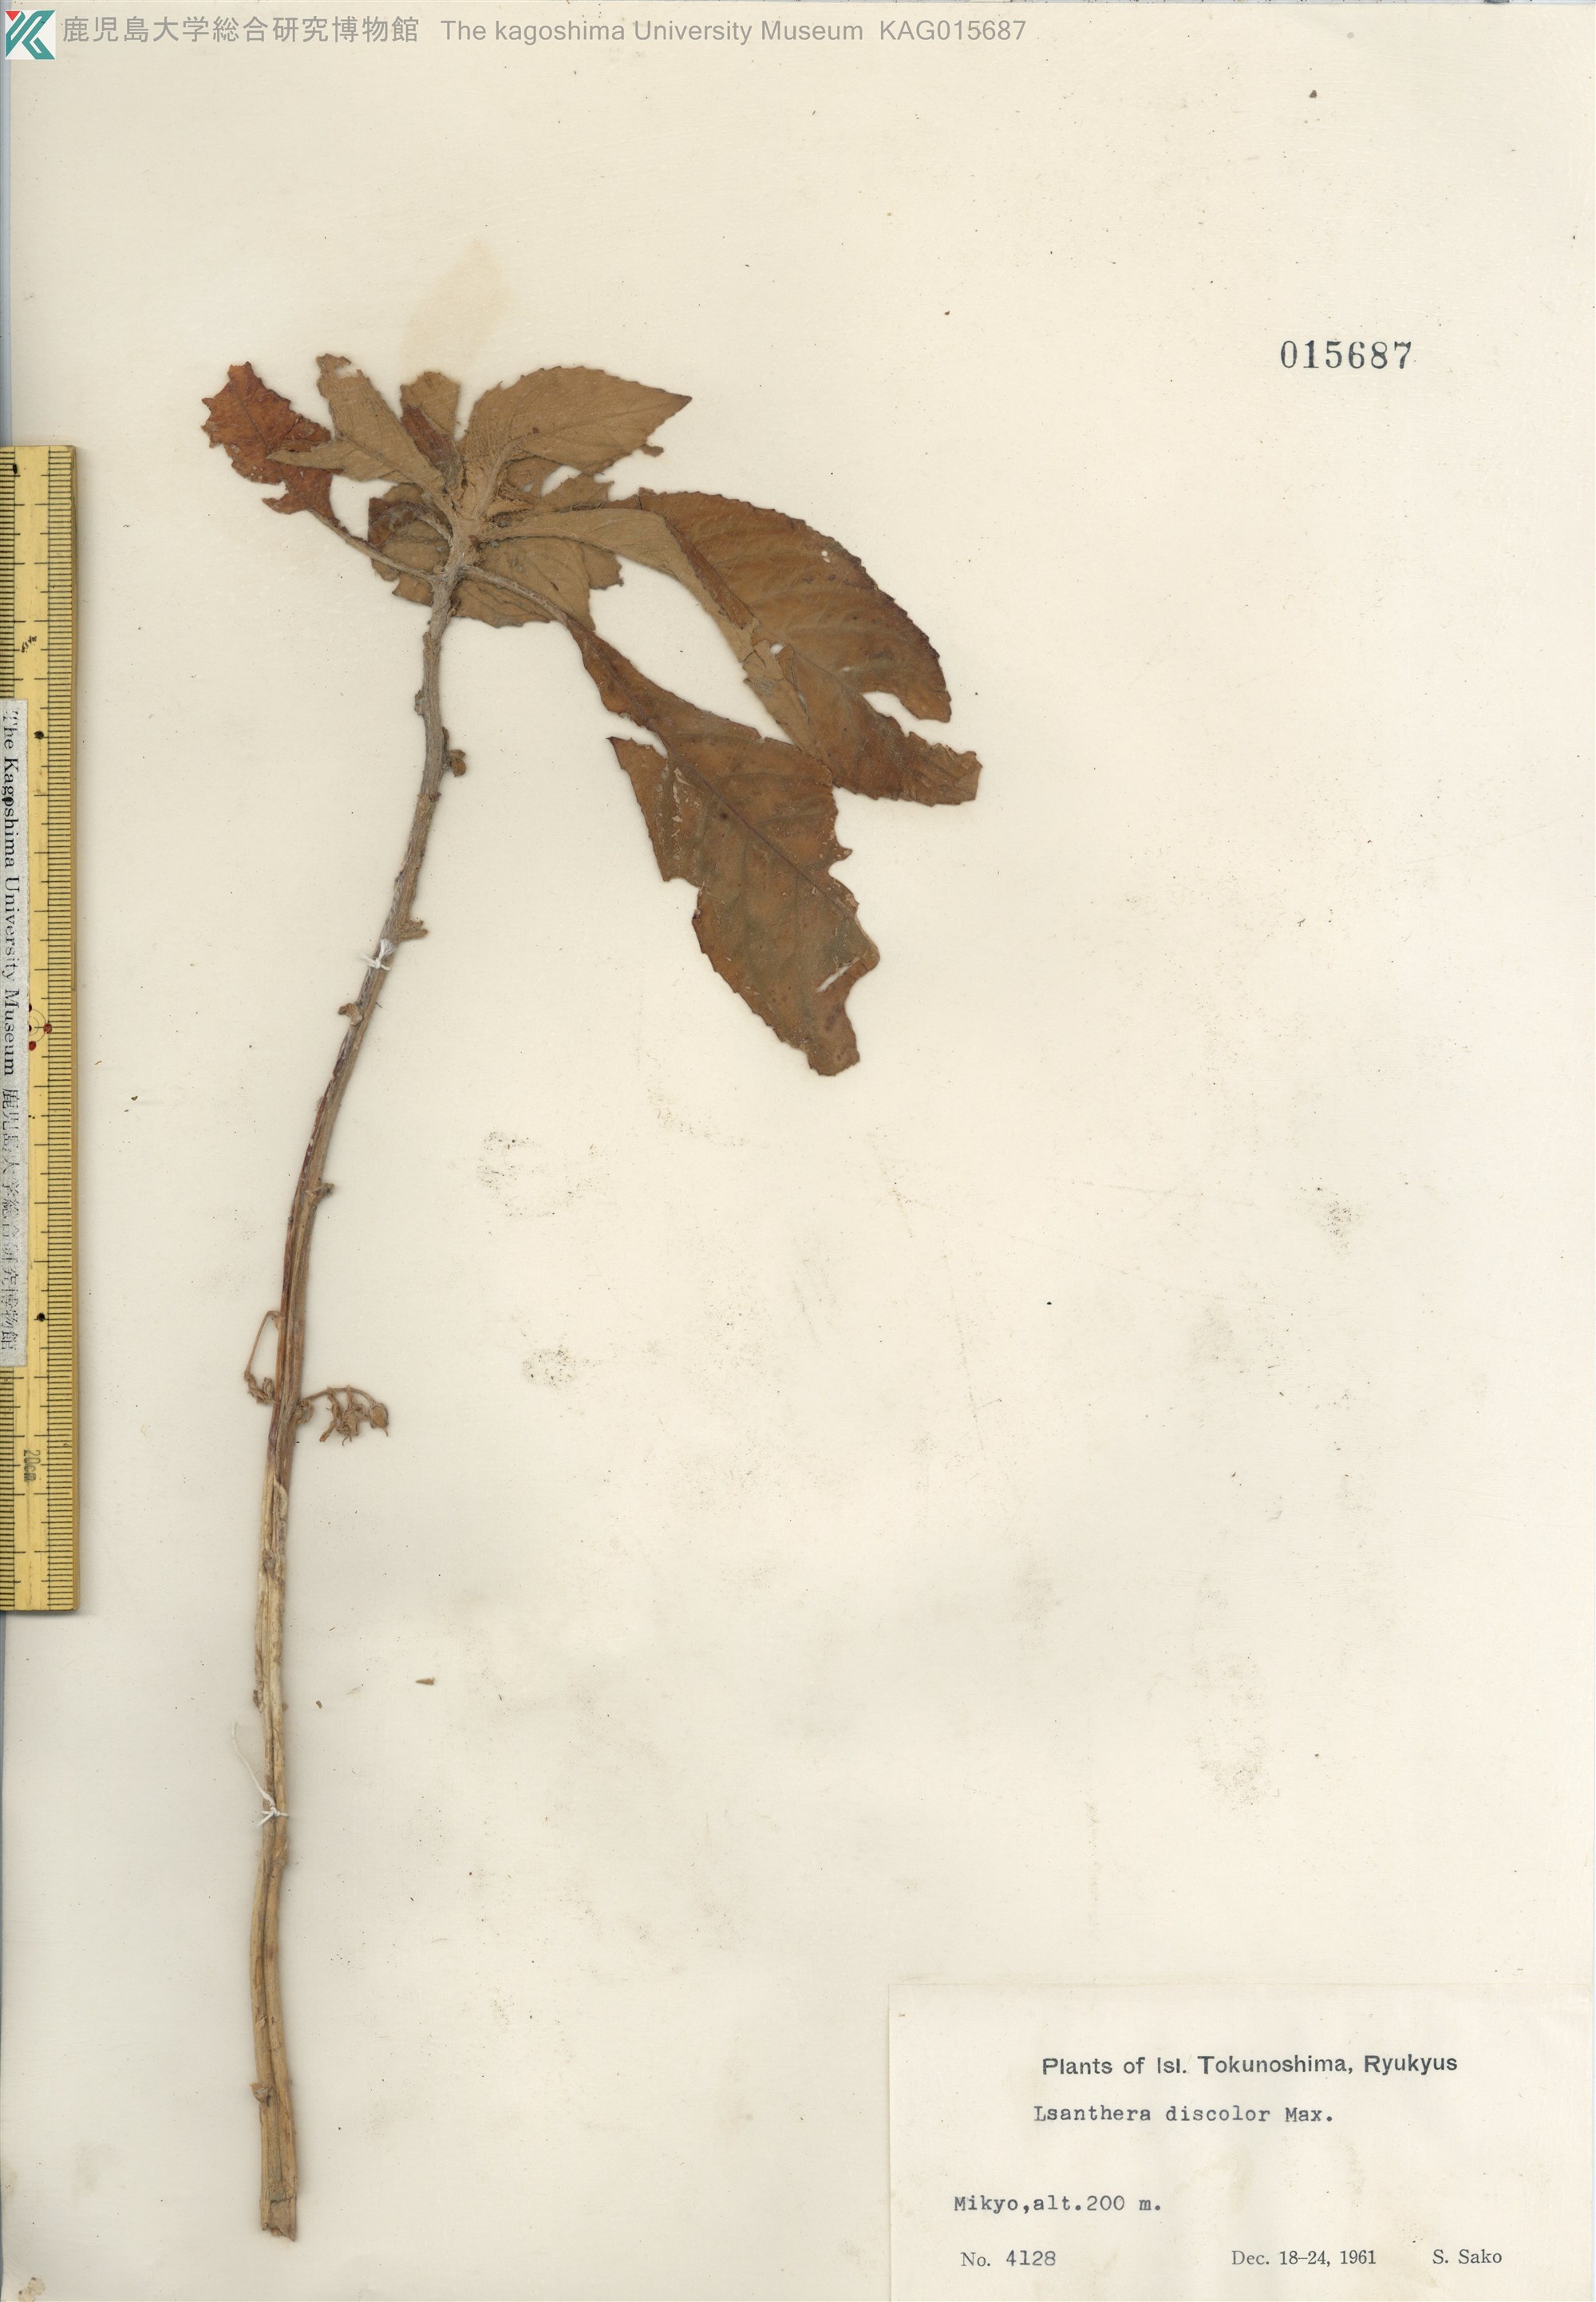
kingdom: Plantae
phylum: Tracheophyta
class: Magnoliopsida
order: Lamiales
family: Gesneriaceae
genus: Rhynchotechum
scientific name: Rhynchotechum discolor
